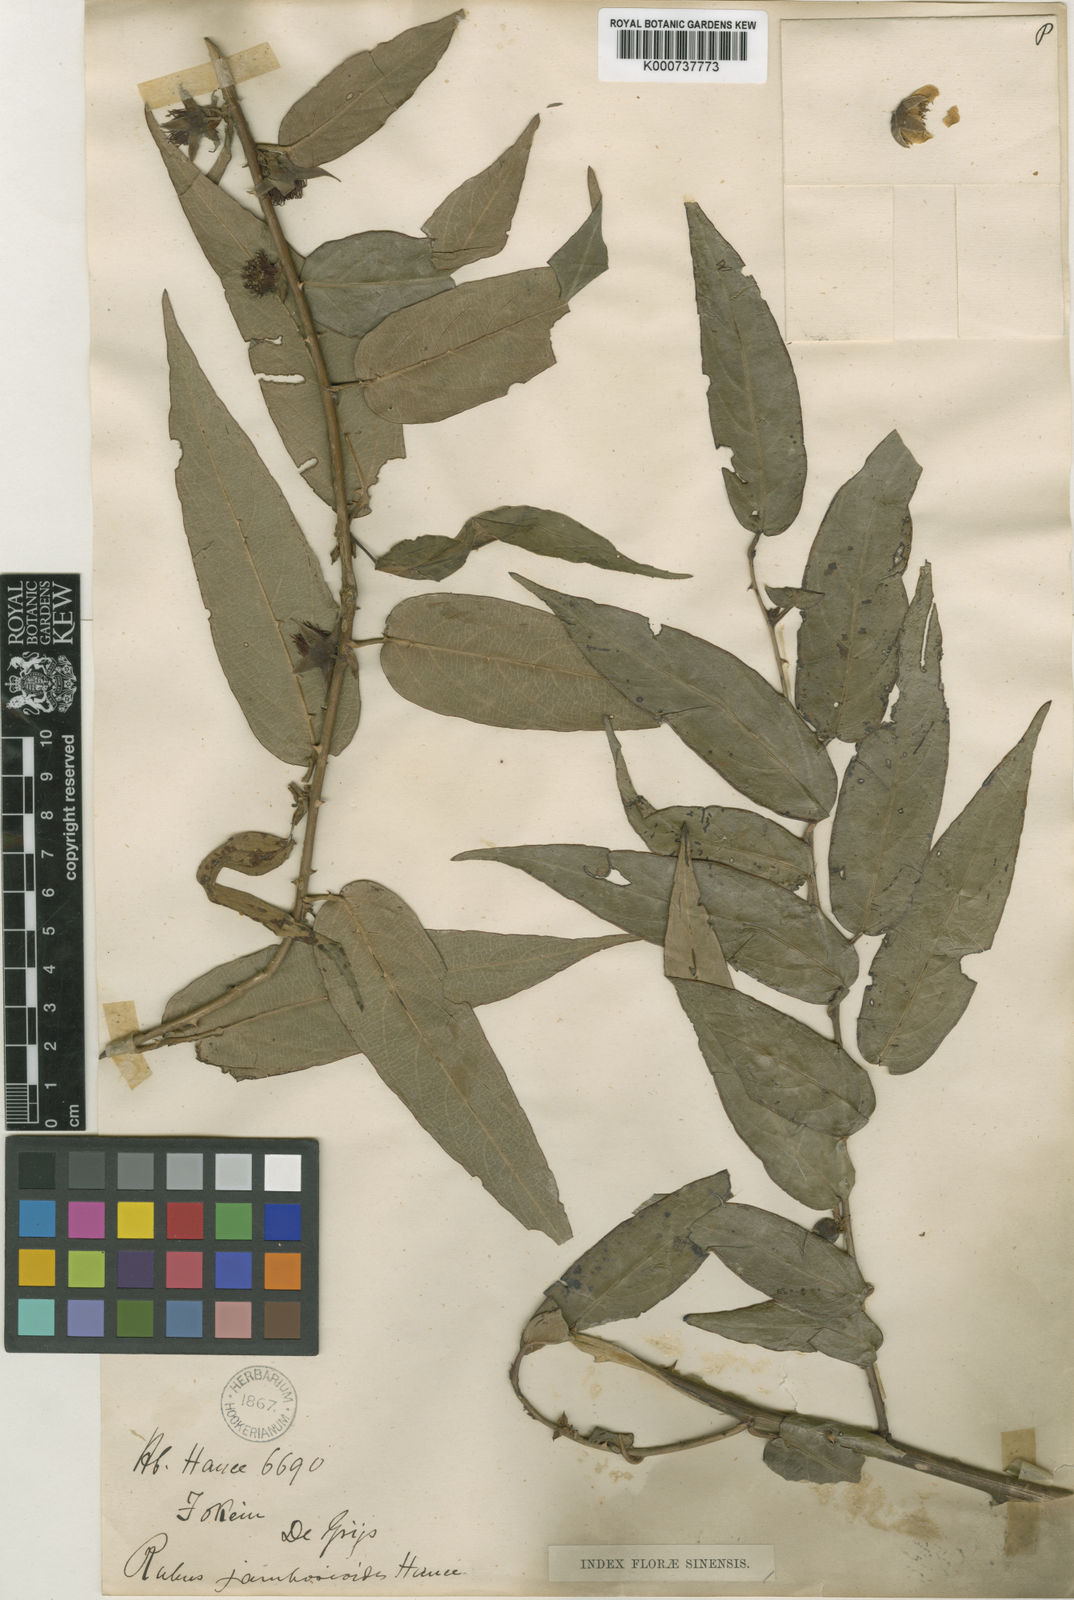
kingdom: Plantae
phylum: Tracheophyta
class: Magnoliopsida
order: Rosales
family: Rosaceae
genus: Rubus
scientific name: Rubus jambosoides
